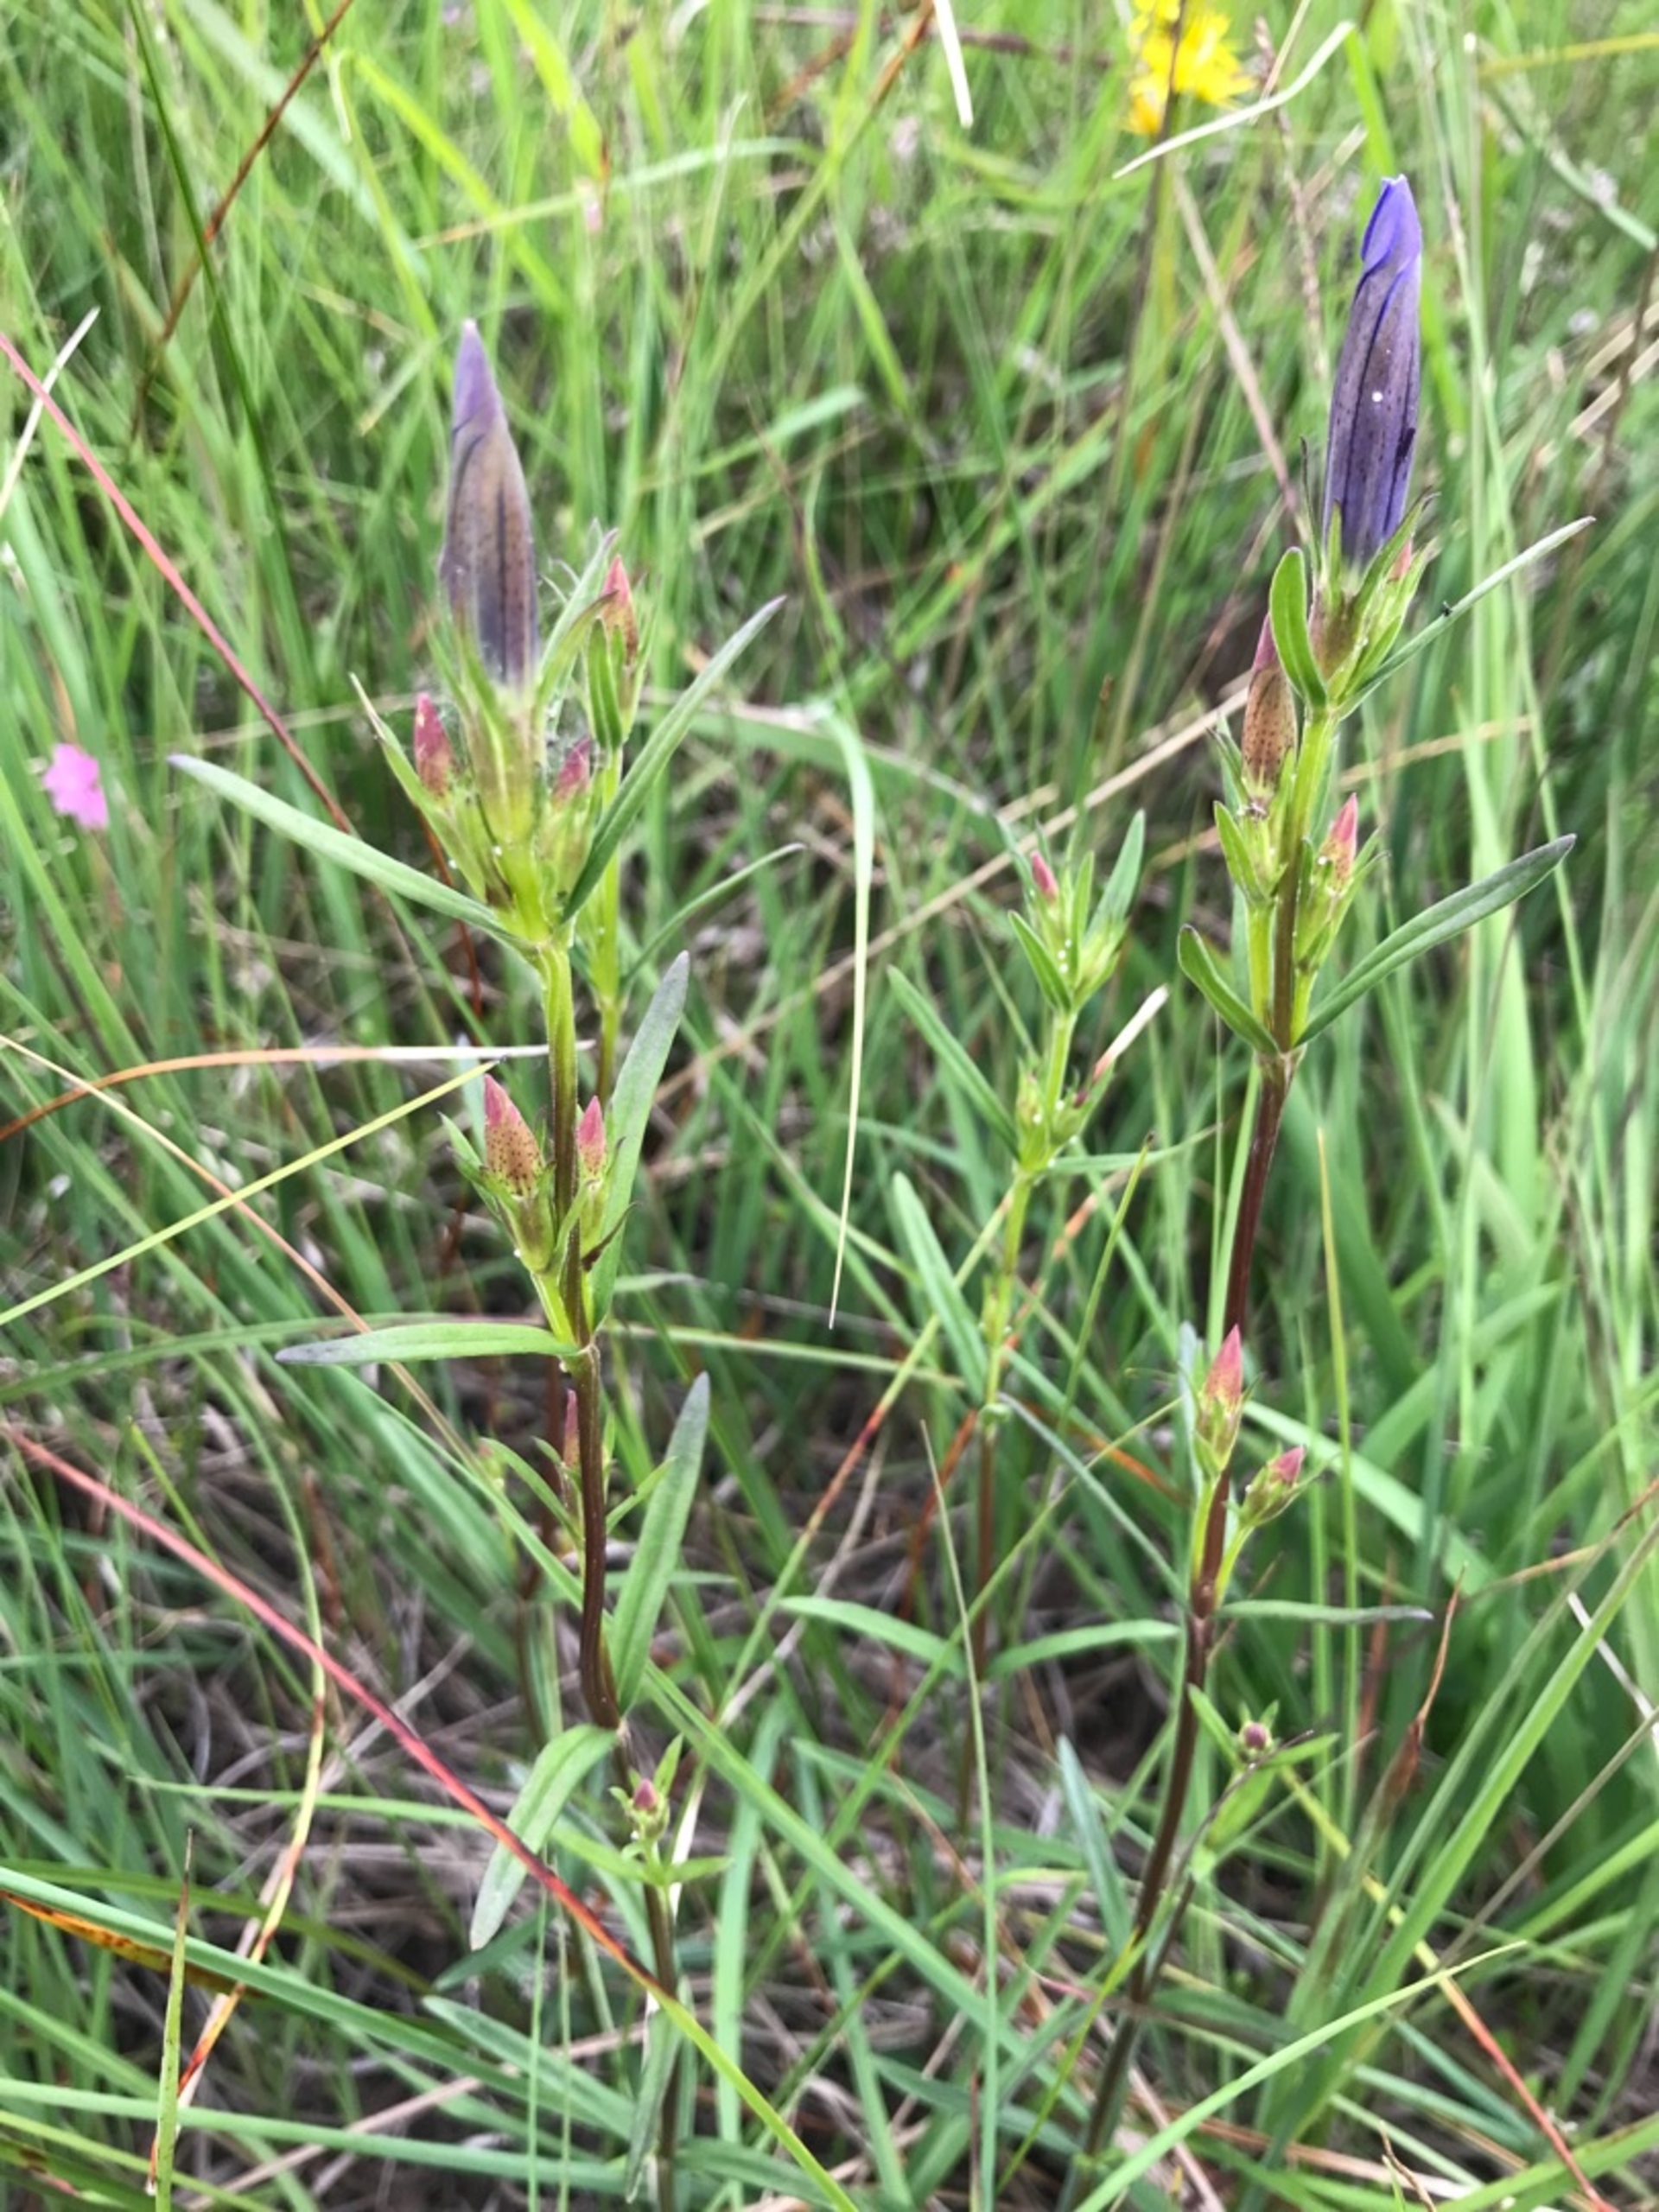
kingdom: Plantae
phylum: Tracheophyta
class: Magnoliopsida
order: Gentianales
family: Gentianaceae
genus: Gentiana
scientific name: Gentiana pneumonanthe
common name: Klokke-ensian
